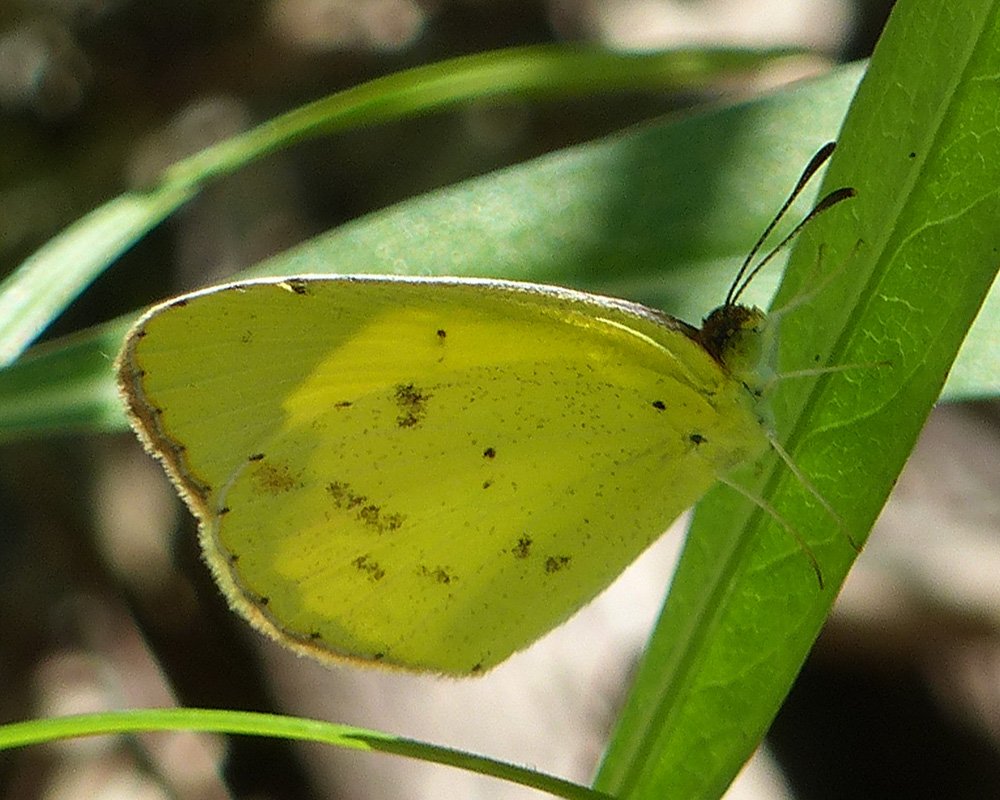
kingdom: Animalia
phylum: Arthropoda
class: Insecta
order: Lepidoptera
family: Pieridae
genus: Pyrisitia
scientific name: Pyrisitia lisa
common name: Little Yellow
